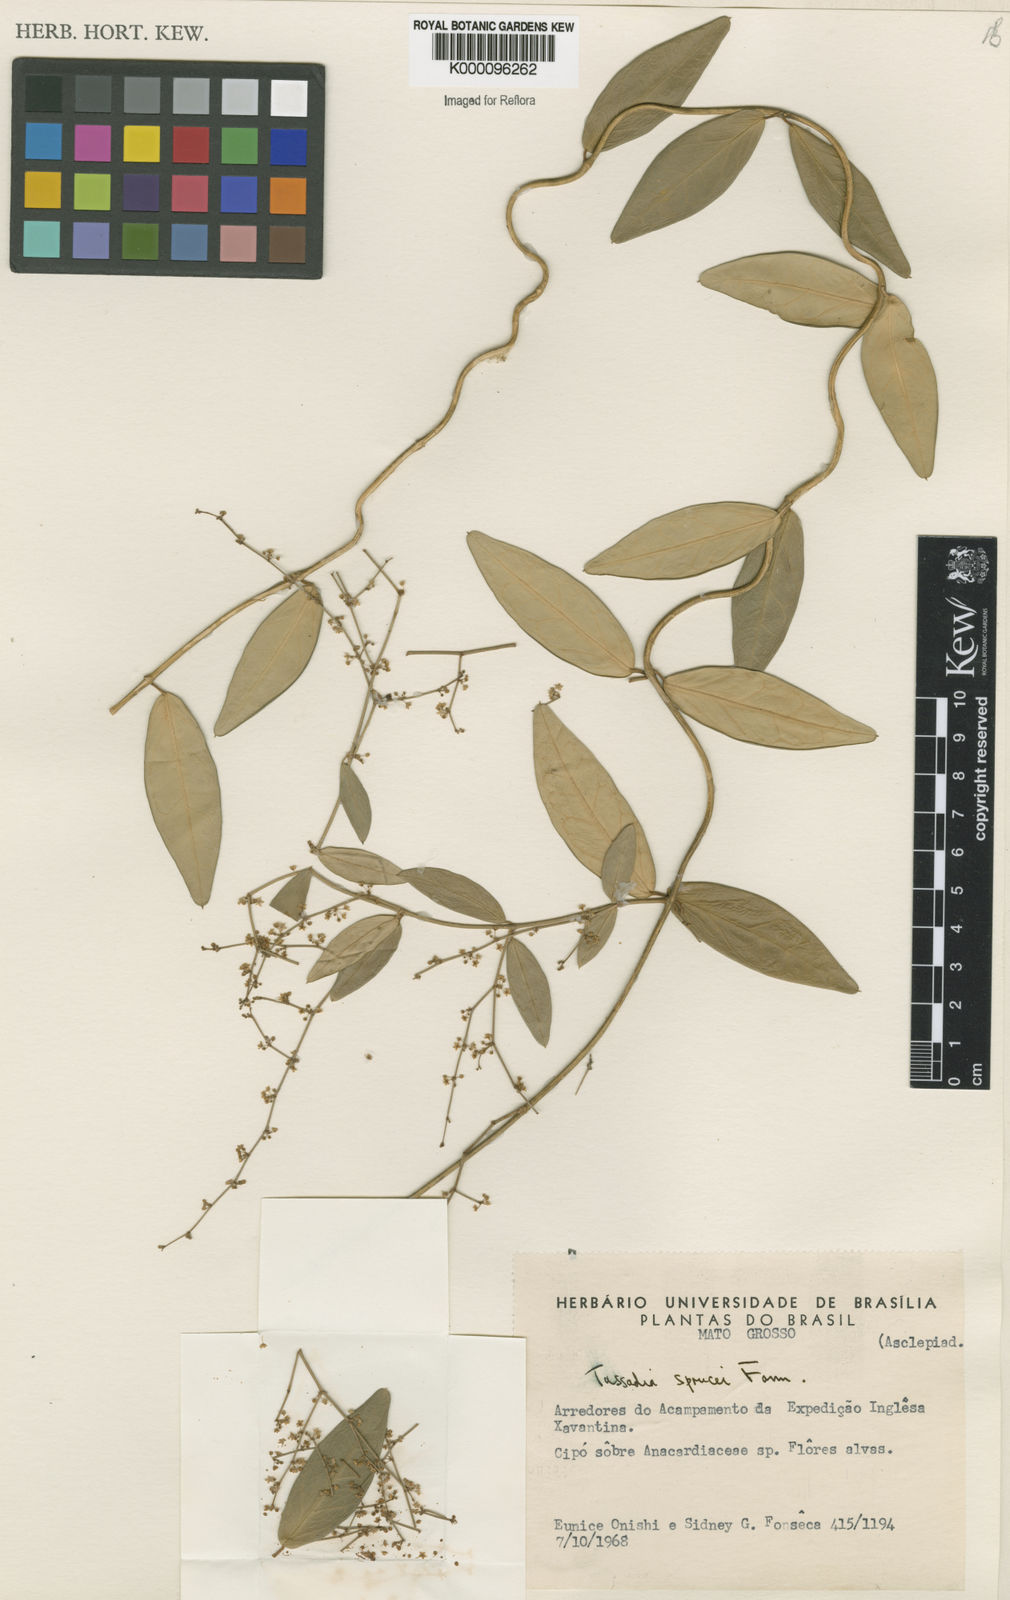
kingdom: Plantae
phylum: Tracheophyta
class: Magnoliopsida
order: Gentianales
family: Apocynaceae
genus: Tassadia
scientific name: Tassadia propinqua
